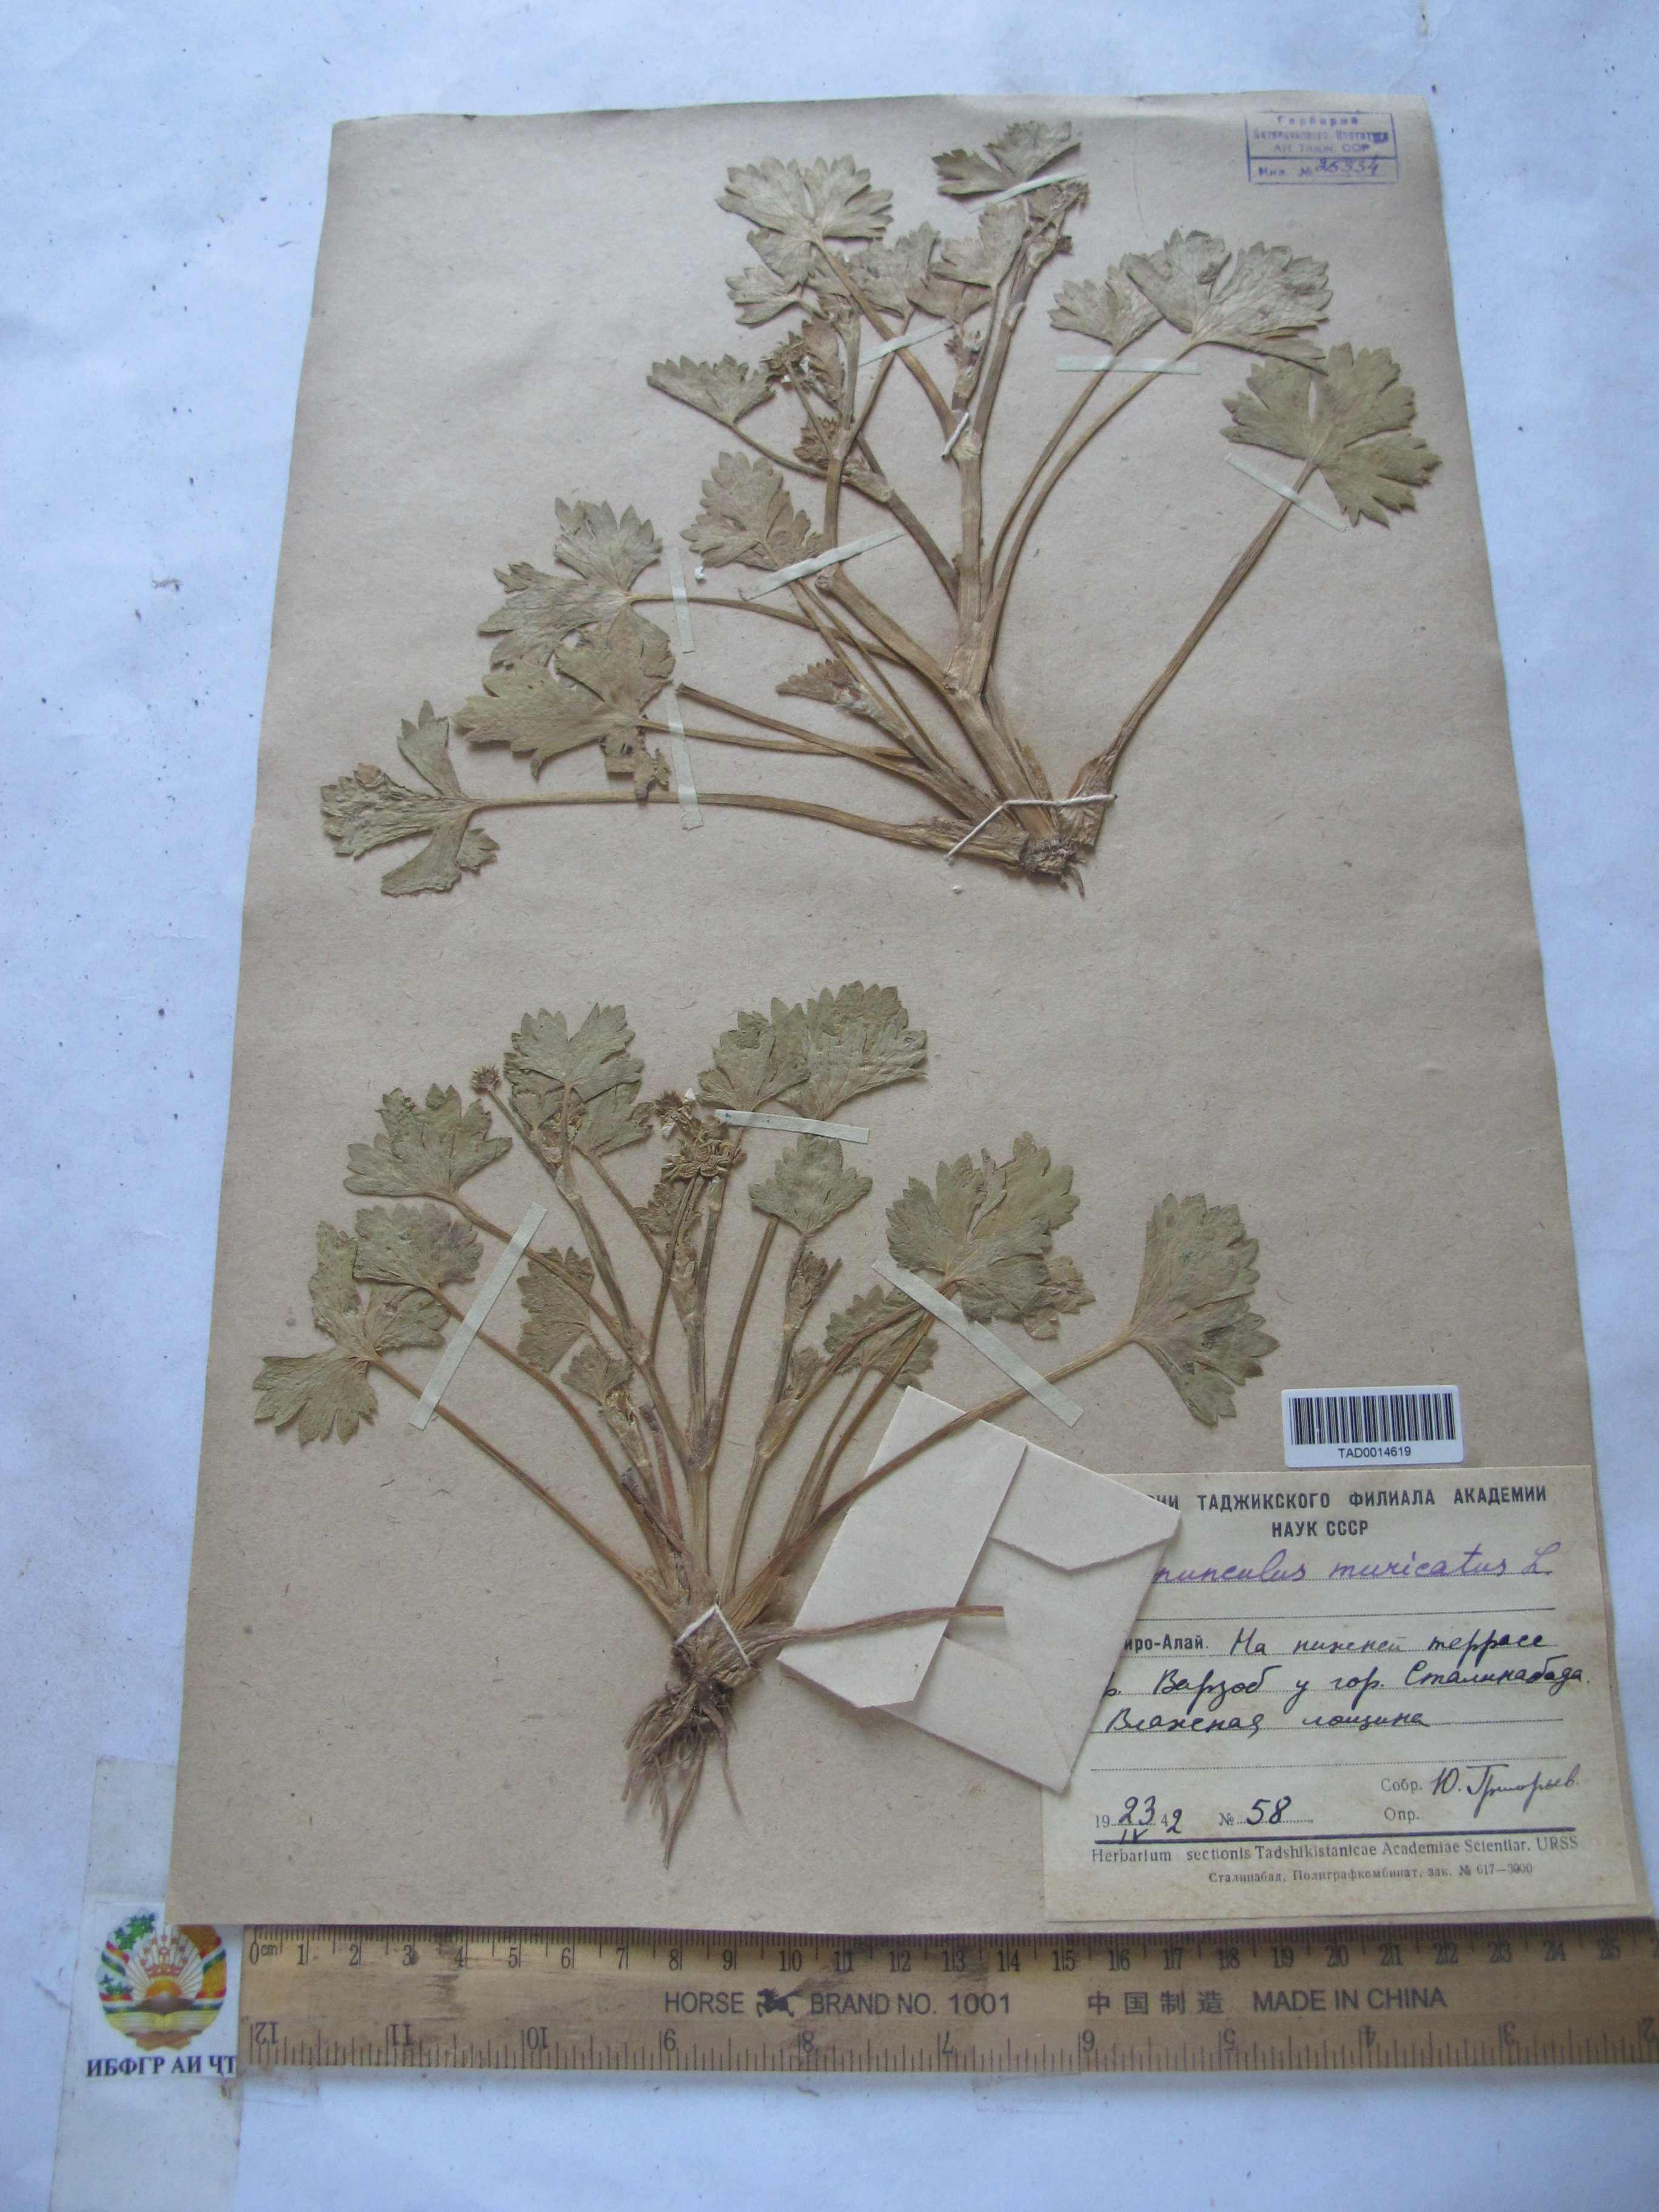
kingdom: Plantae
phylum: Tracheophyta
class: Magnoliopsida
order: Ranunculales
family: Ranunculaceae
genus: Ranunculus
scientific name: Ranunculus muricatus
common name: Rough-fruited buttercup
